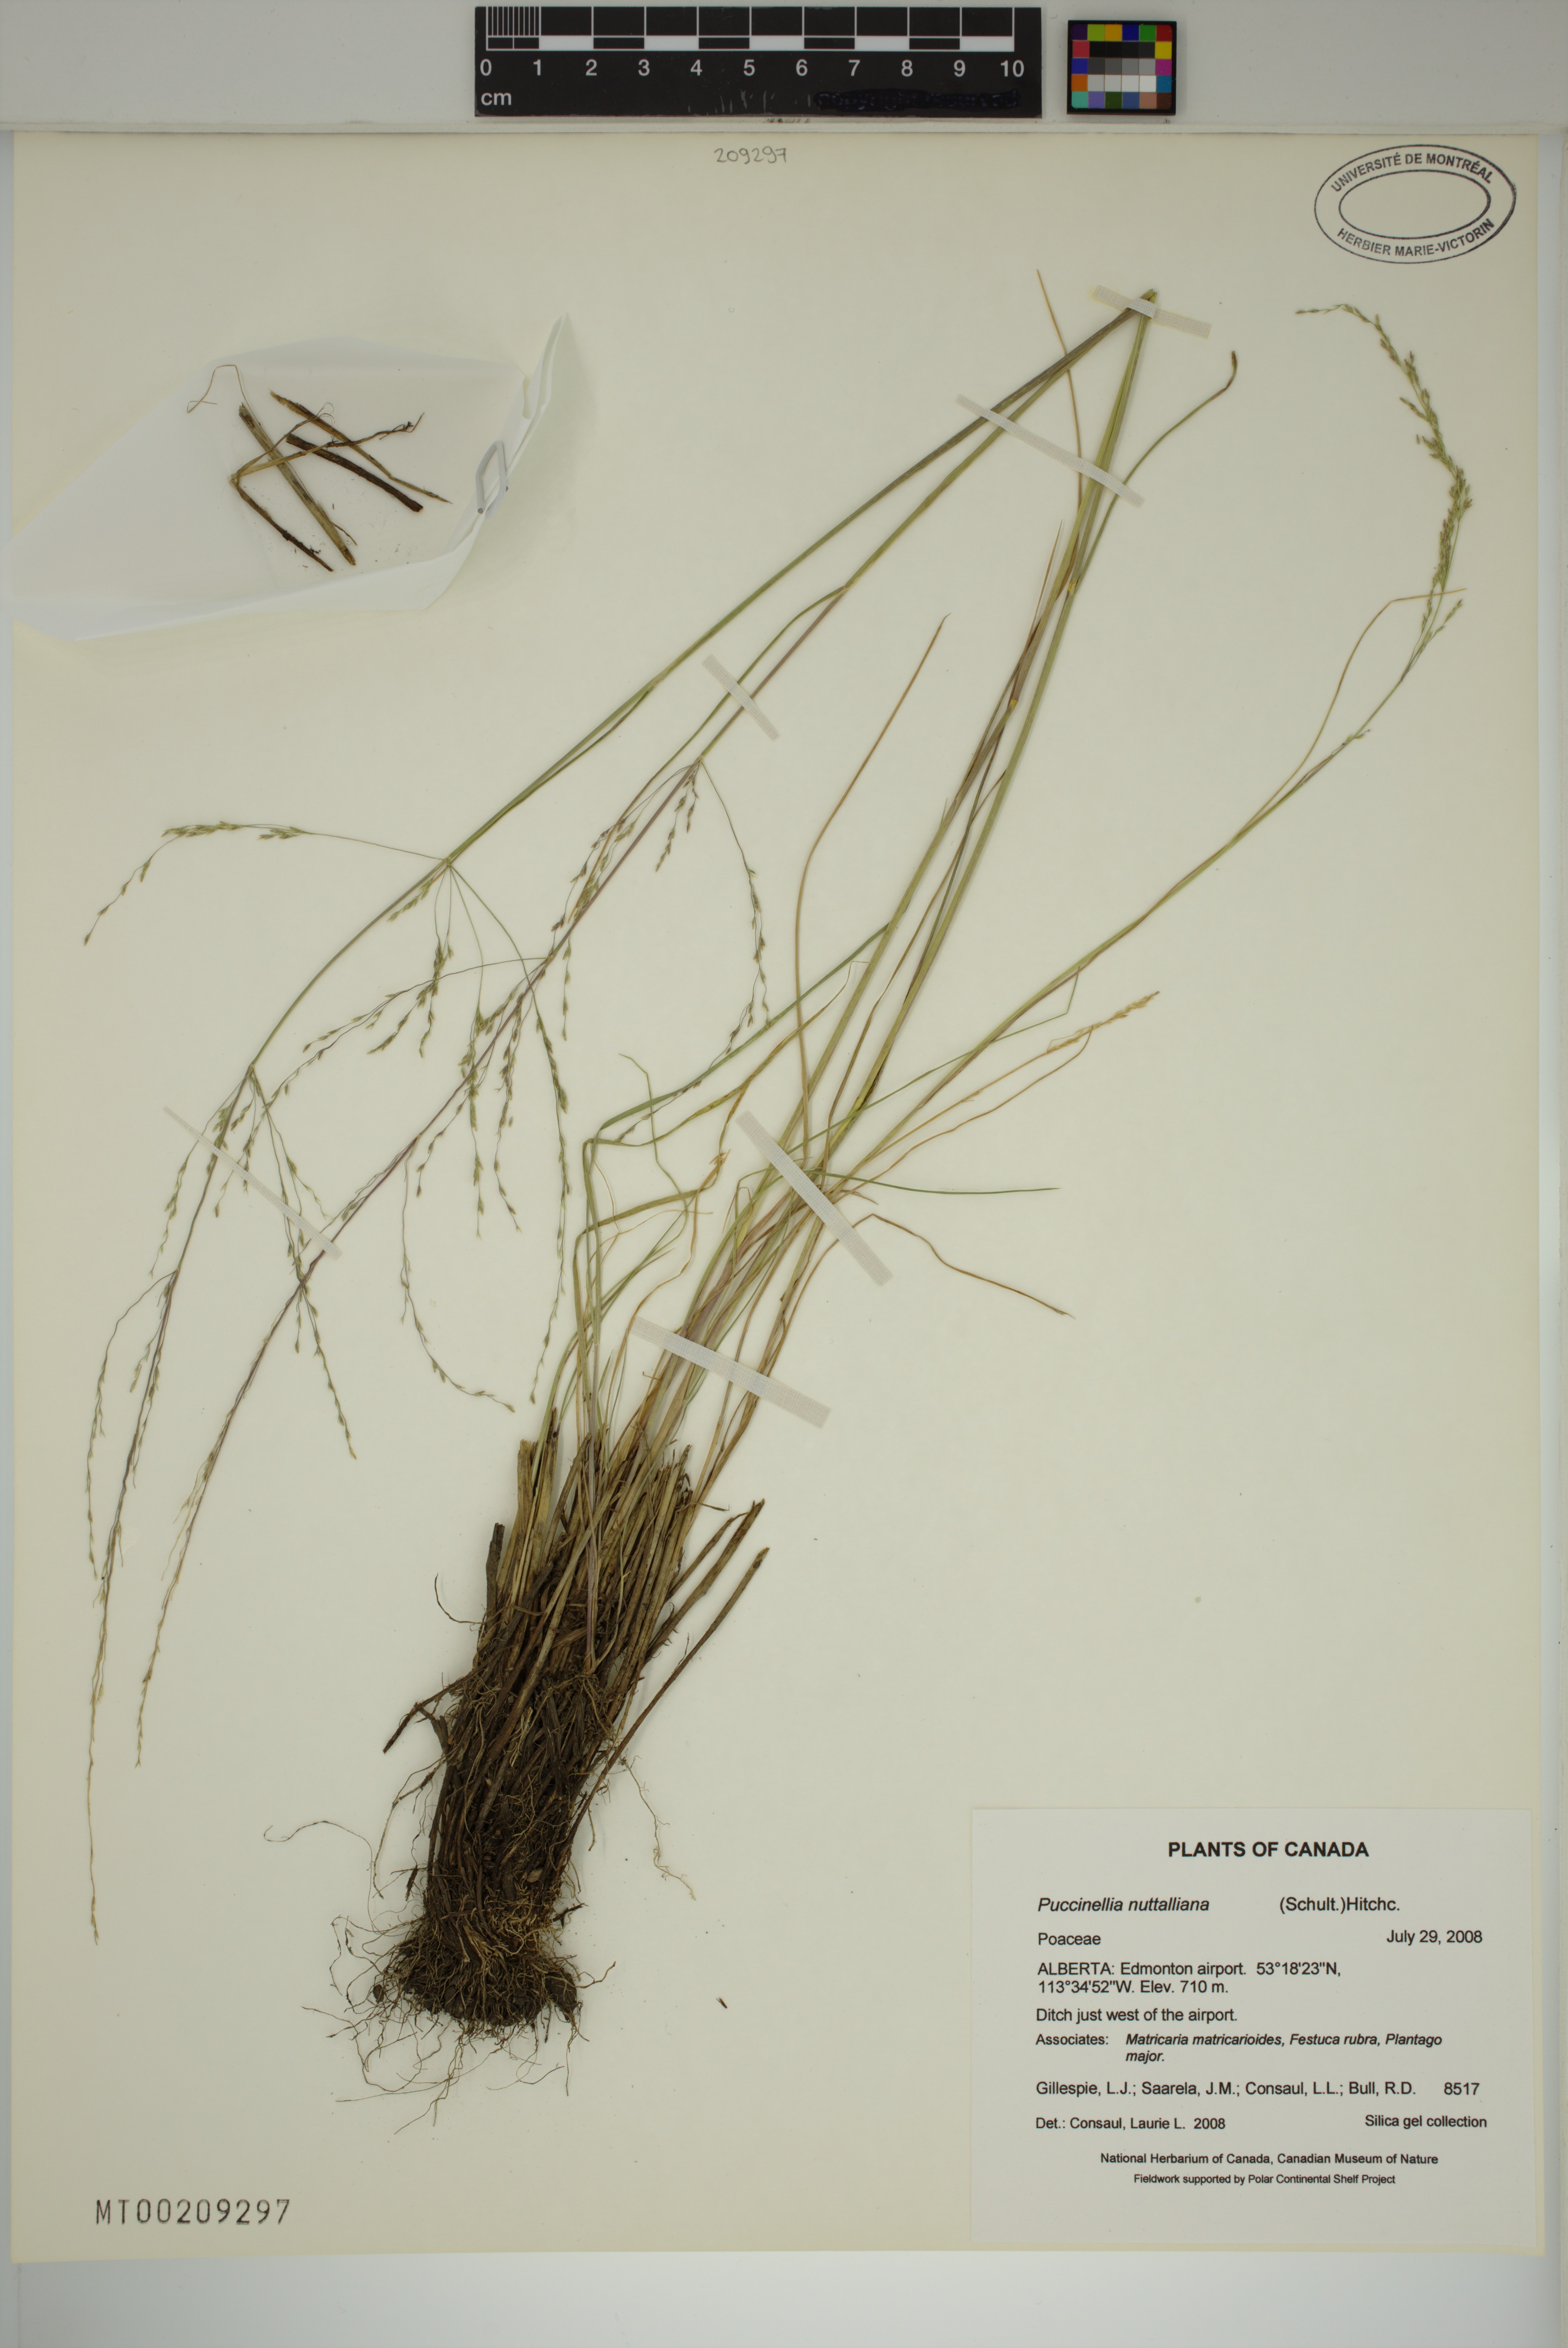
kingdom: Plantae
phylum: Tracheophyta
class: Liliopsida
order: Poales
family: Poaceae
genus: Puccinellia
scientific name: Puccinellia nuttalliana
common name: Nuttall's alkali grass
